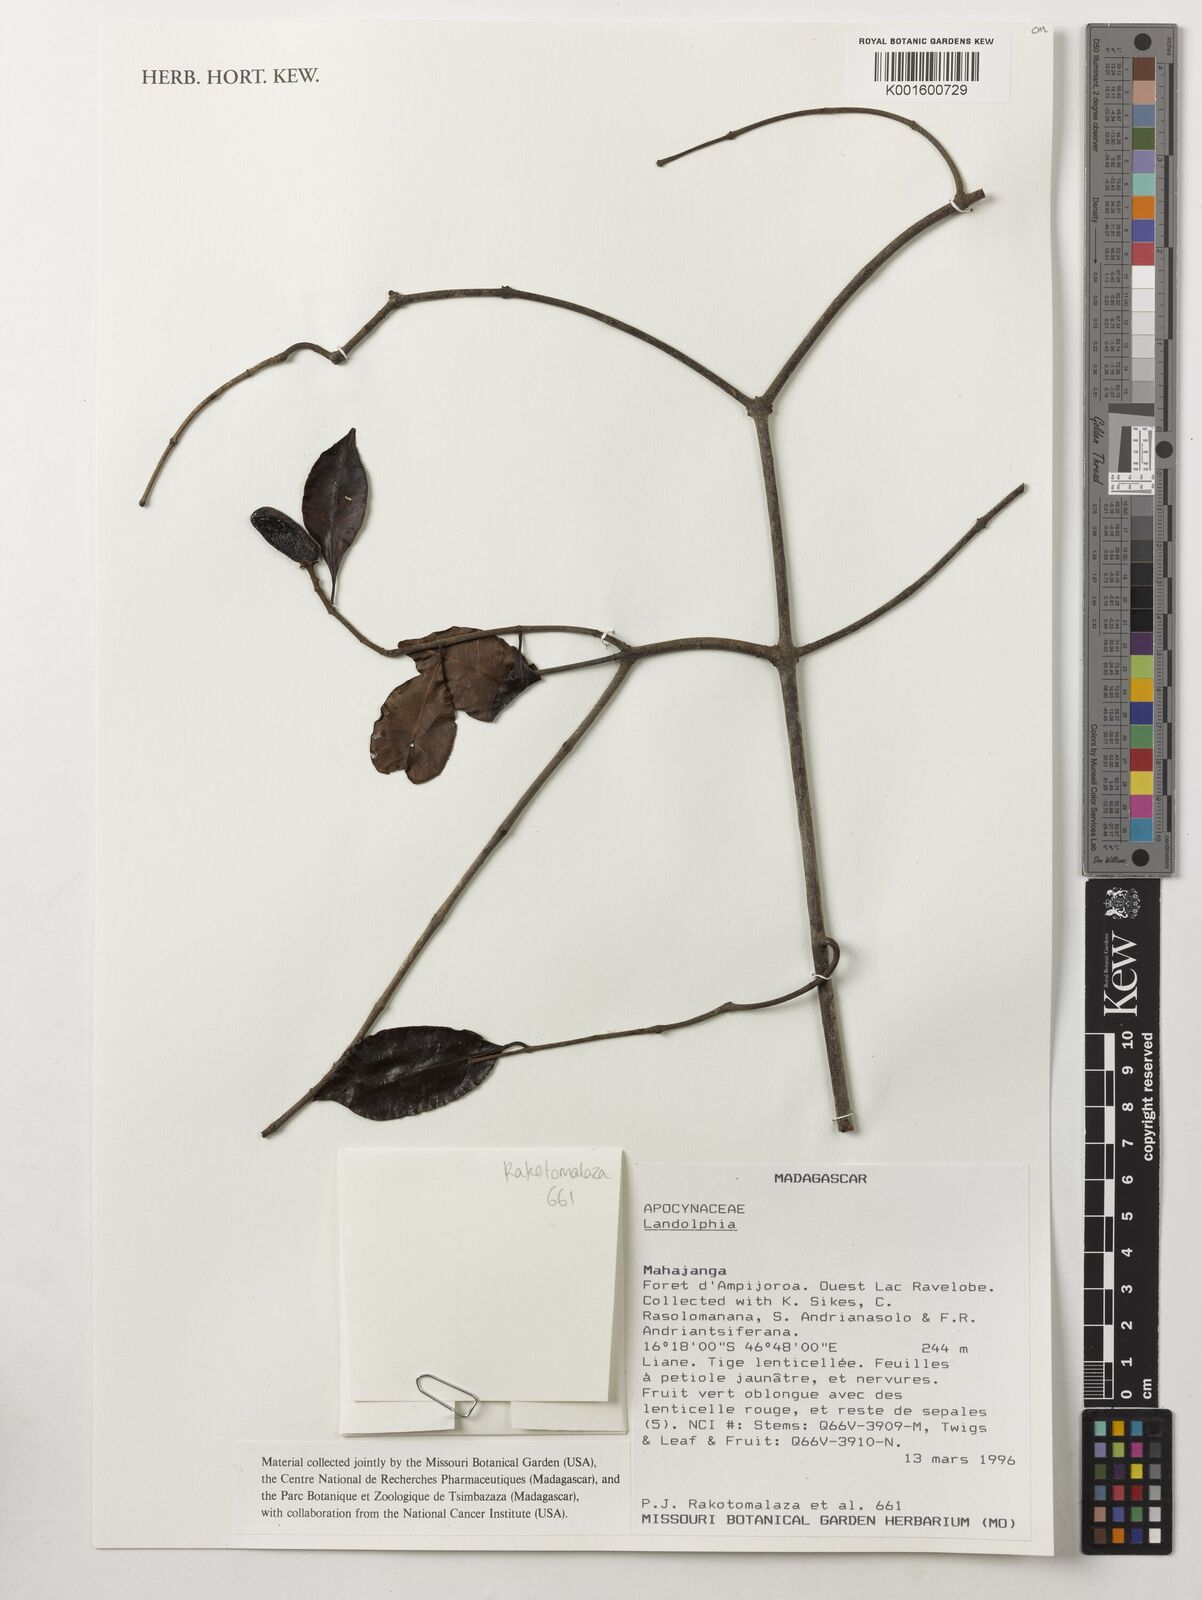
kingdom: Plantae
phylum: Tracheophyta
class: Magnoliopsida
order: Gentianales
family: Apocynaceae
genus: Landolphia
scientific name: Landolphia
